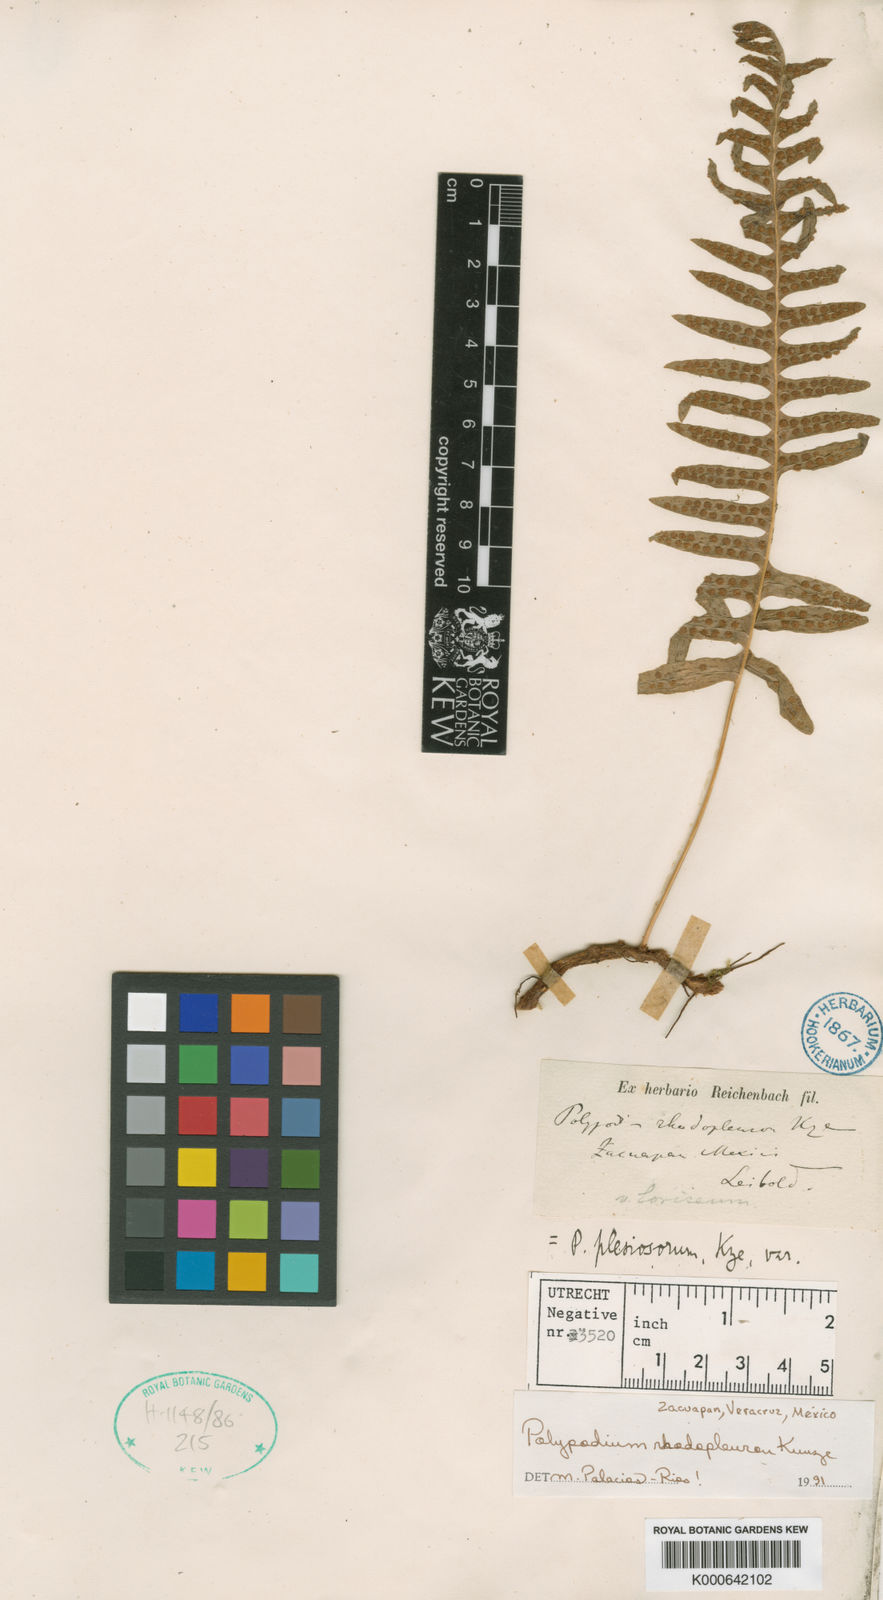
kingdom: Plantae
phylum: Tracheophyta
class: Polypodiopsida
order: Polypodiales
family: Polypodiaceae
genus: Polypodium
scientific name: Polypodium rhodopleuron
